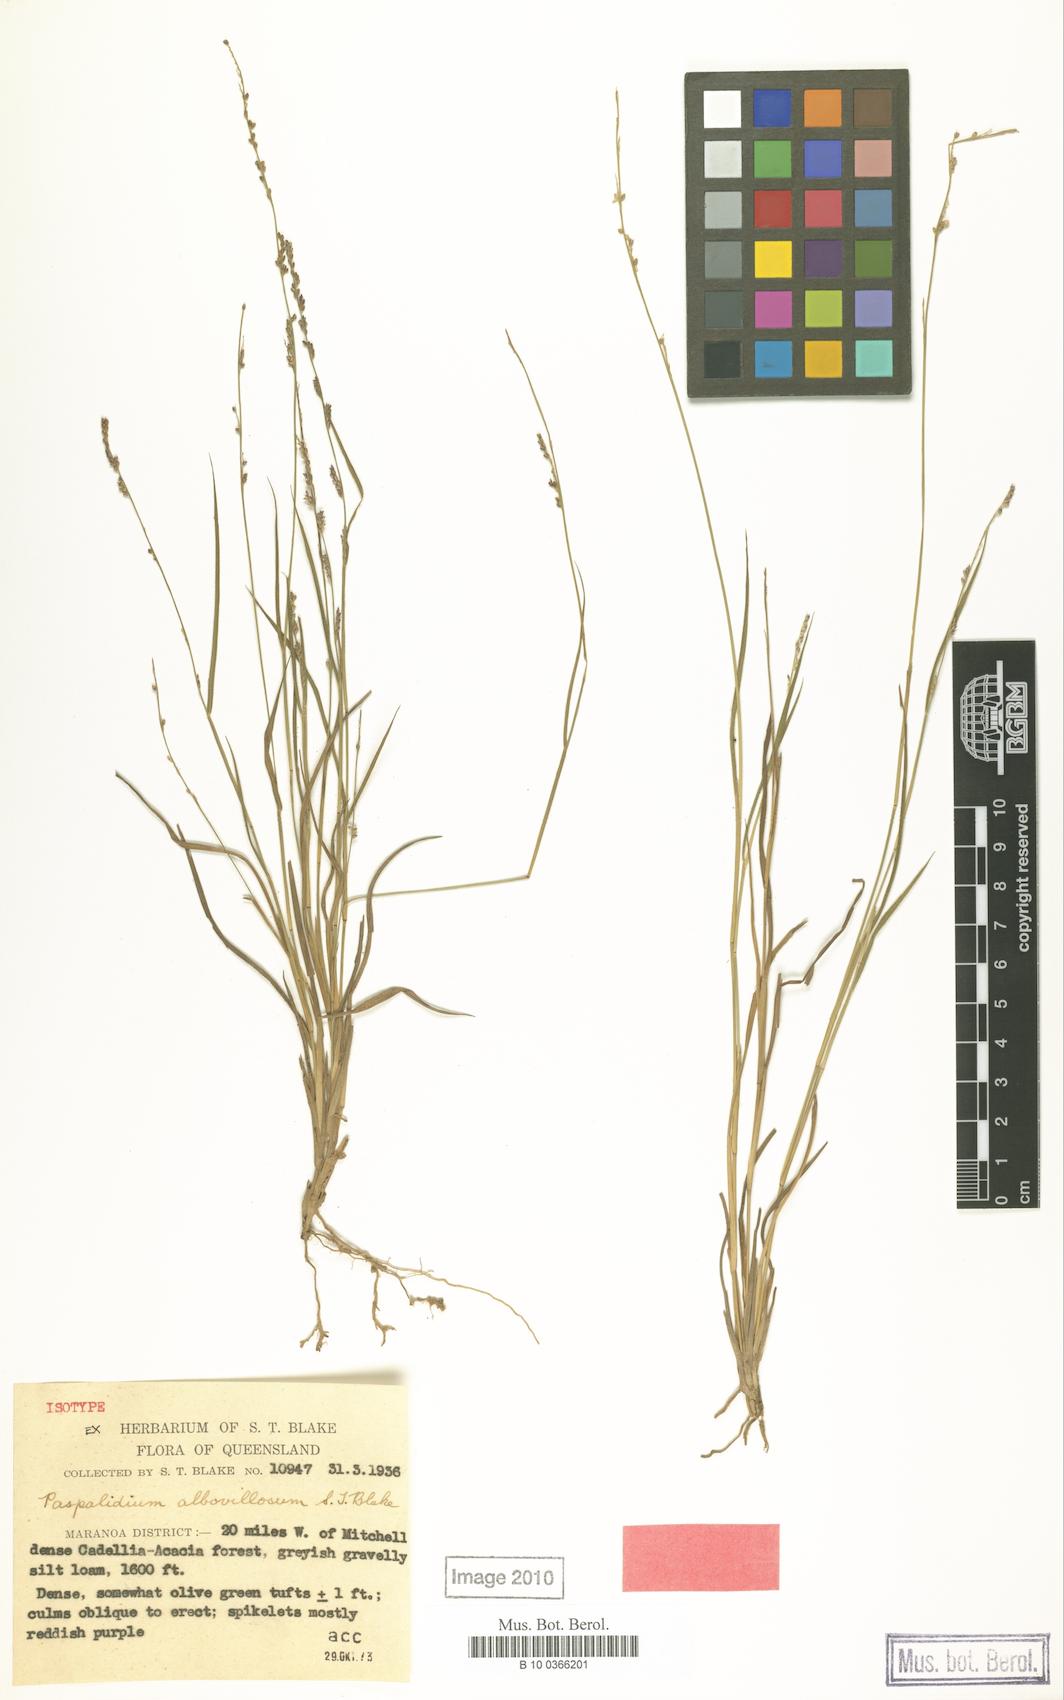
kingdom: Plantae
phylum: Tracheophyta
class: Liliopsida
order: Poales
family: Poaceae
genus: Setaria
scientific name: Setaria albovillosa
